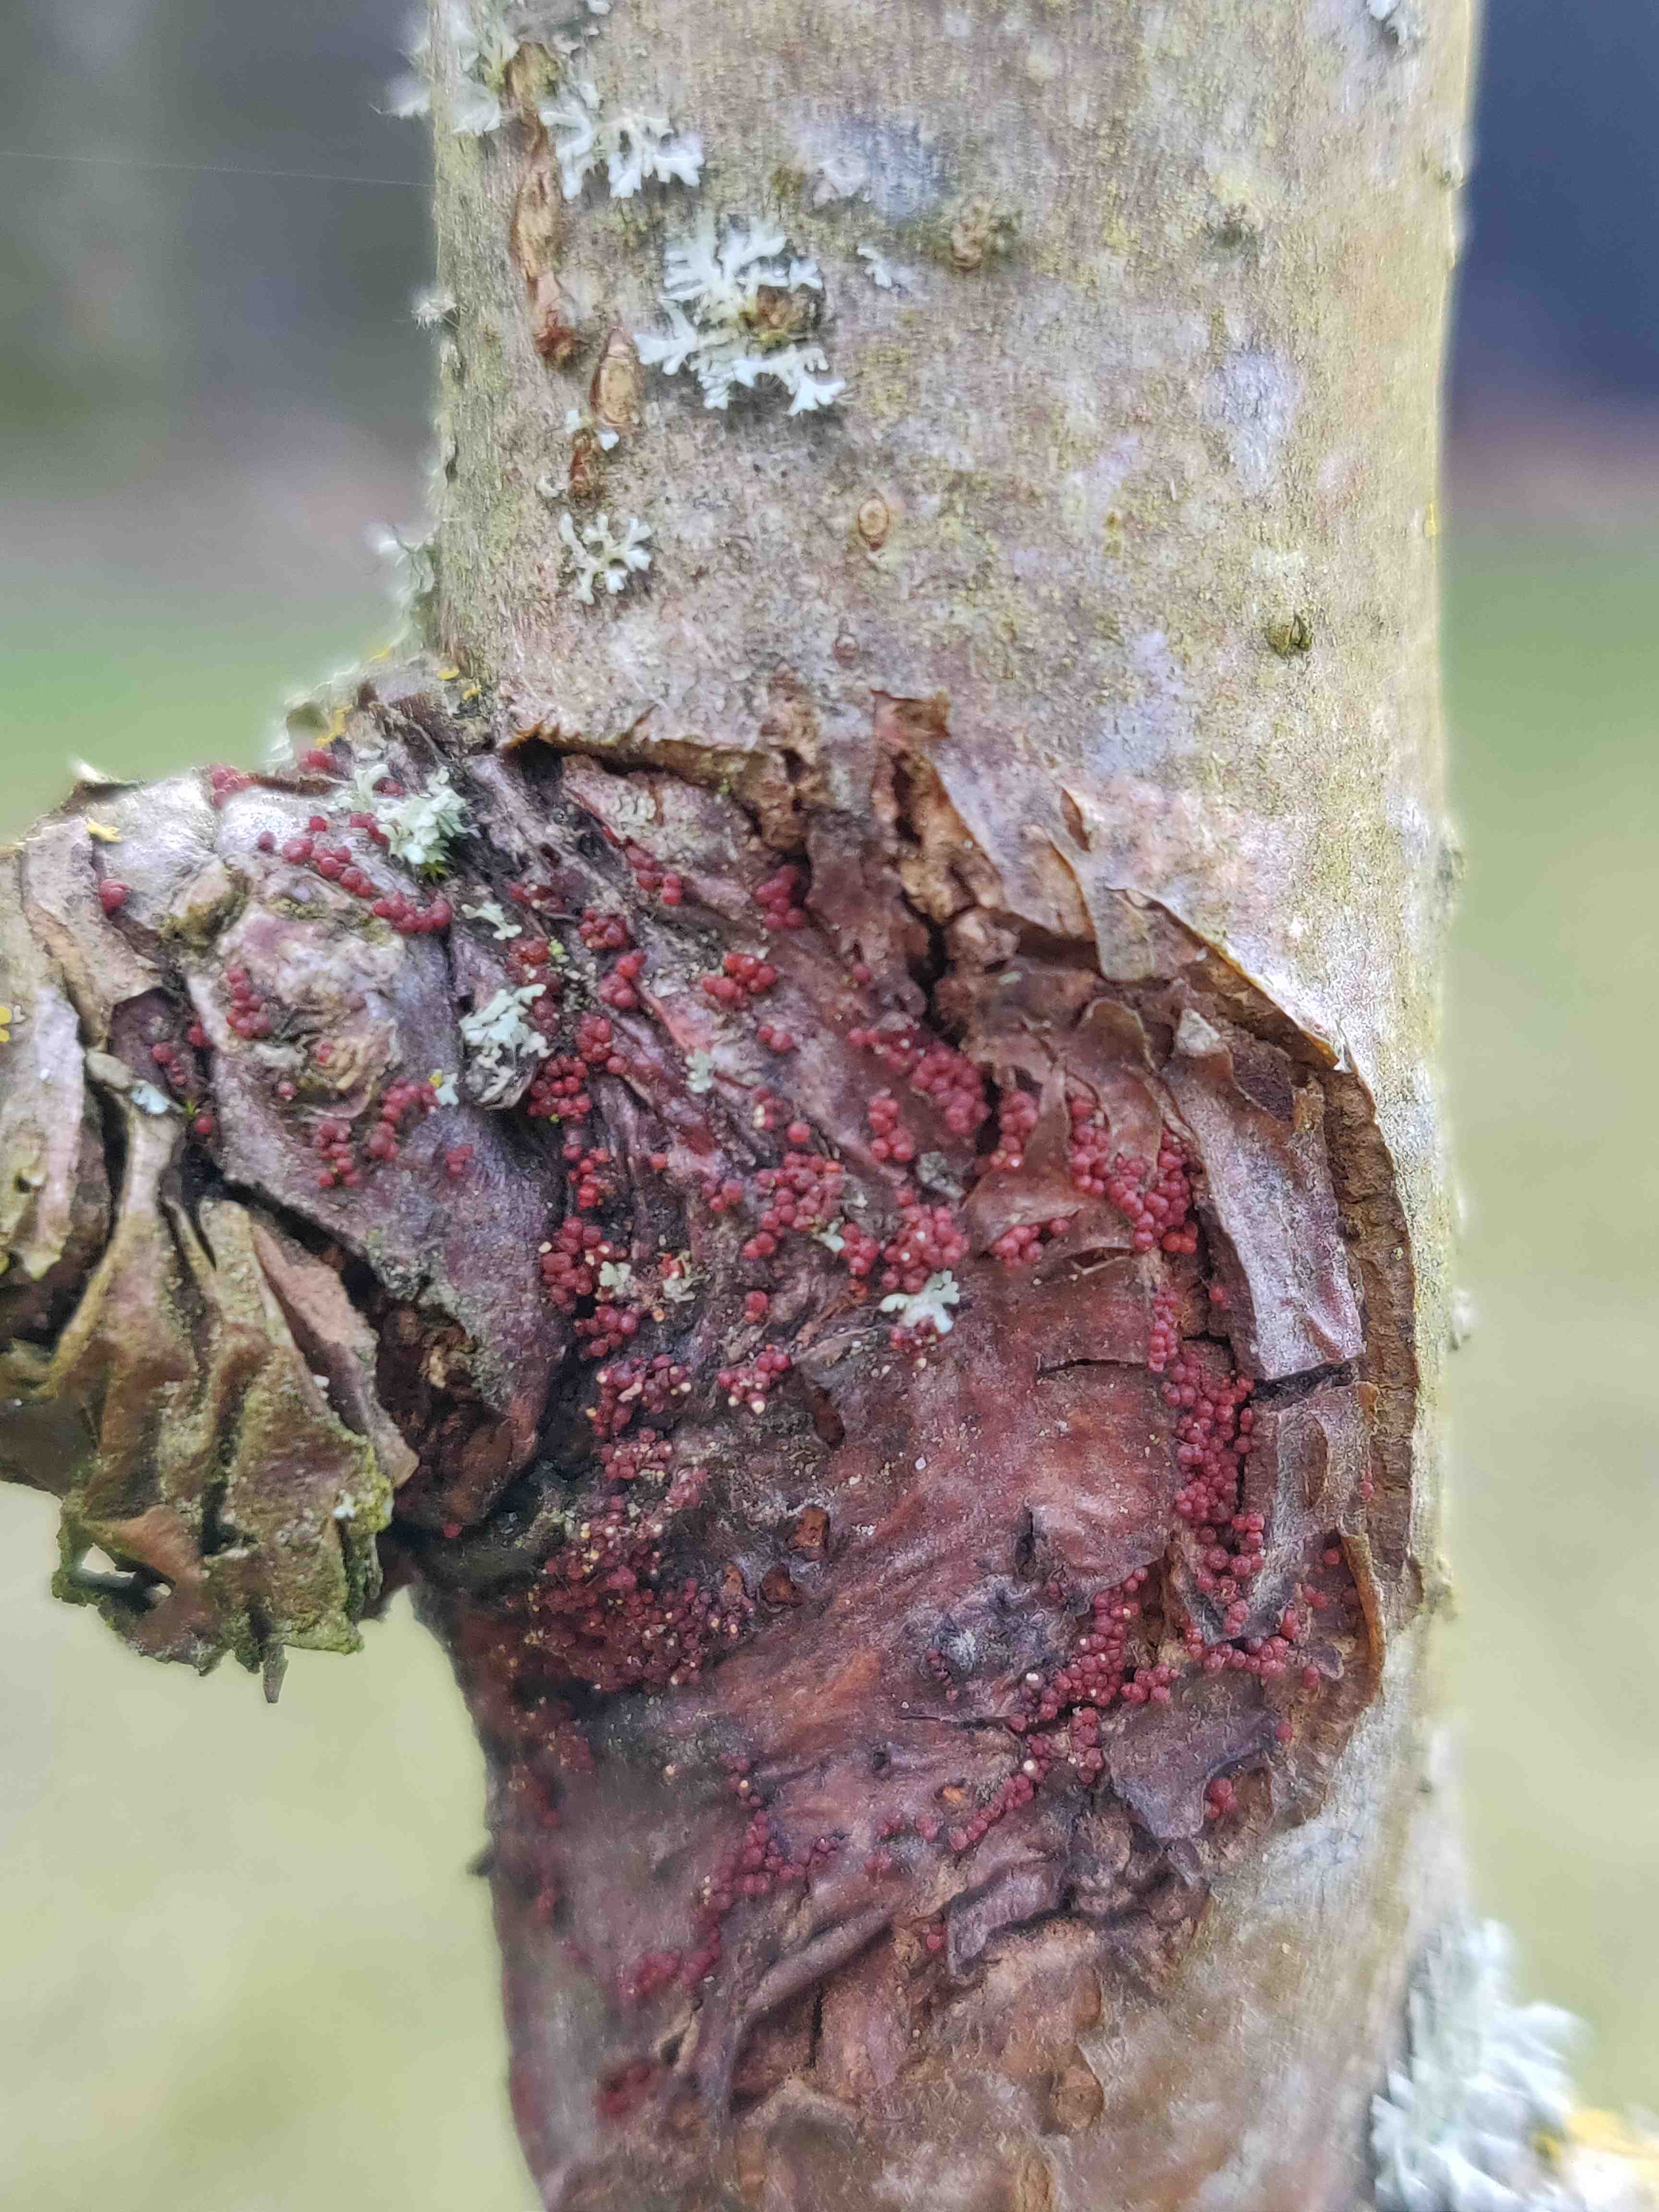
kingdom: Fungi
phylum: Ascomycota
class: Sordariomycetes
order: Hypocreales
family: Nectriaceae
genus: Neonectria
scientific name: Neonectria ditissima
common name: frugttræ-cinnobersvamp
